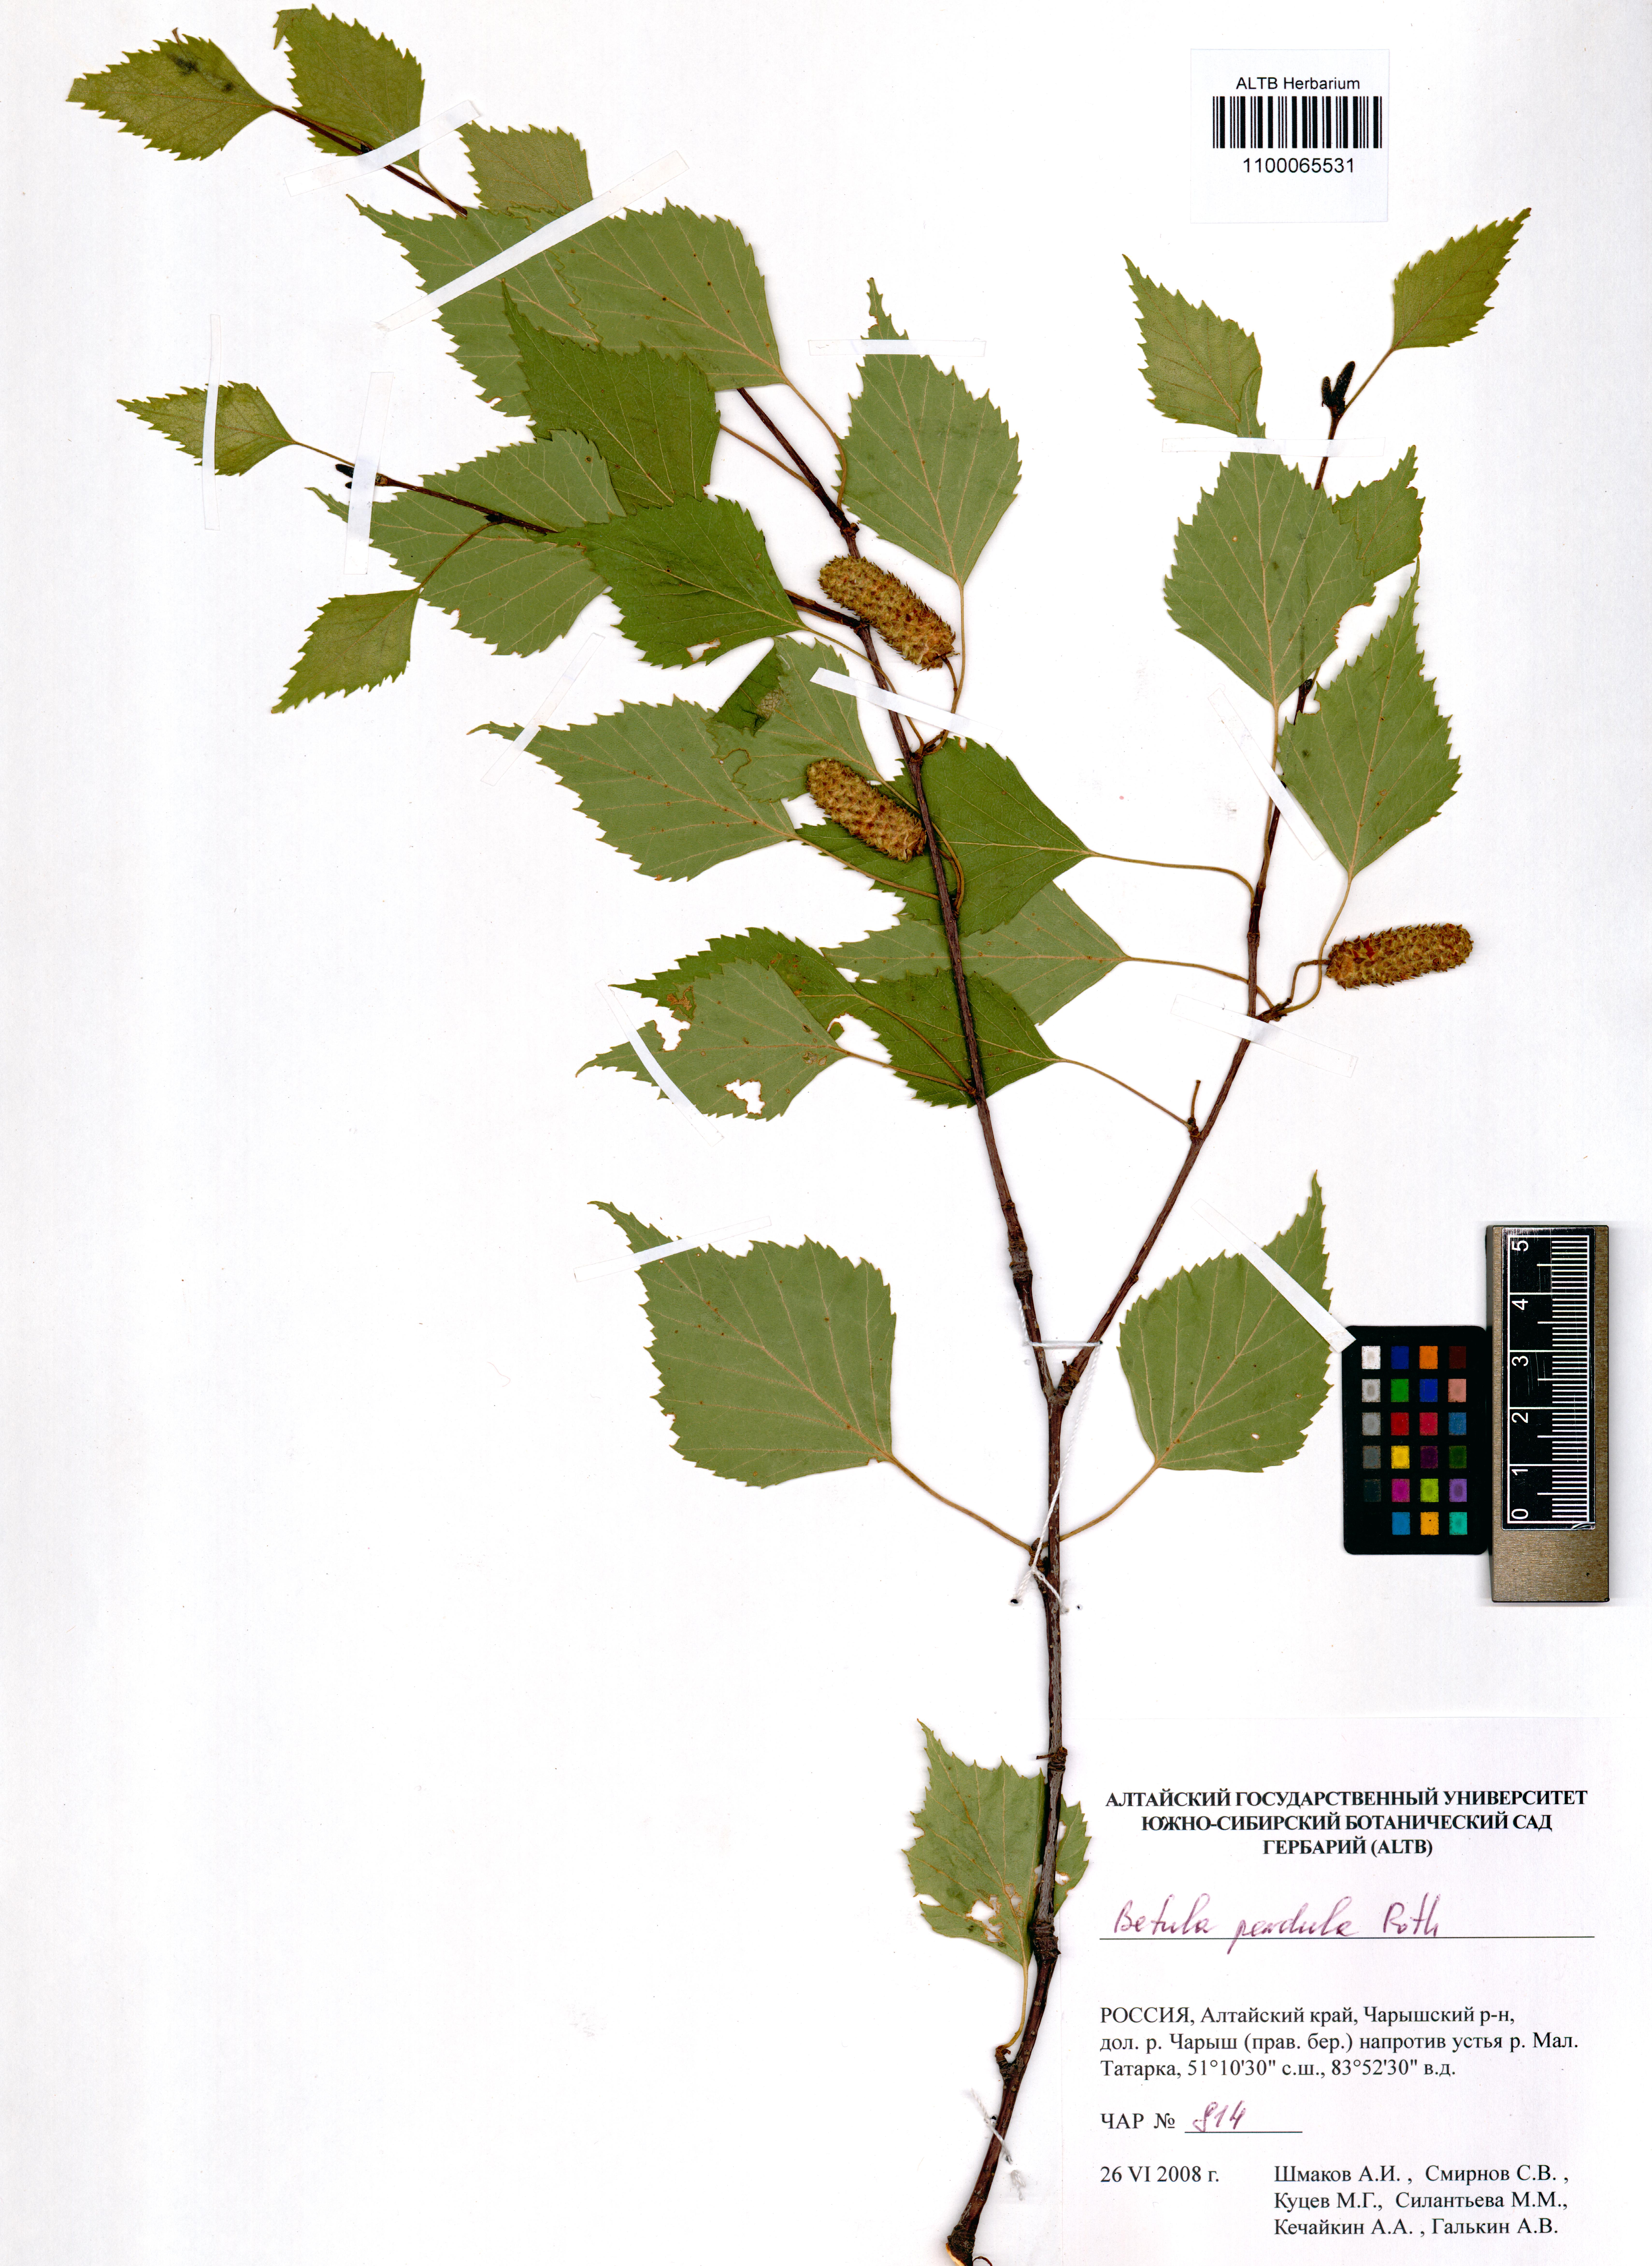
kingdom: Plantae
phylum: Tracheophyta
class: Magnoliopsida
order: Fagales
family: Betulaceae
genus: Betula
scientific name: Betula pendula
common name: Silver birch
